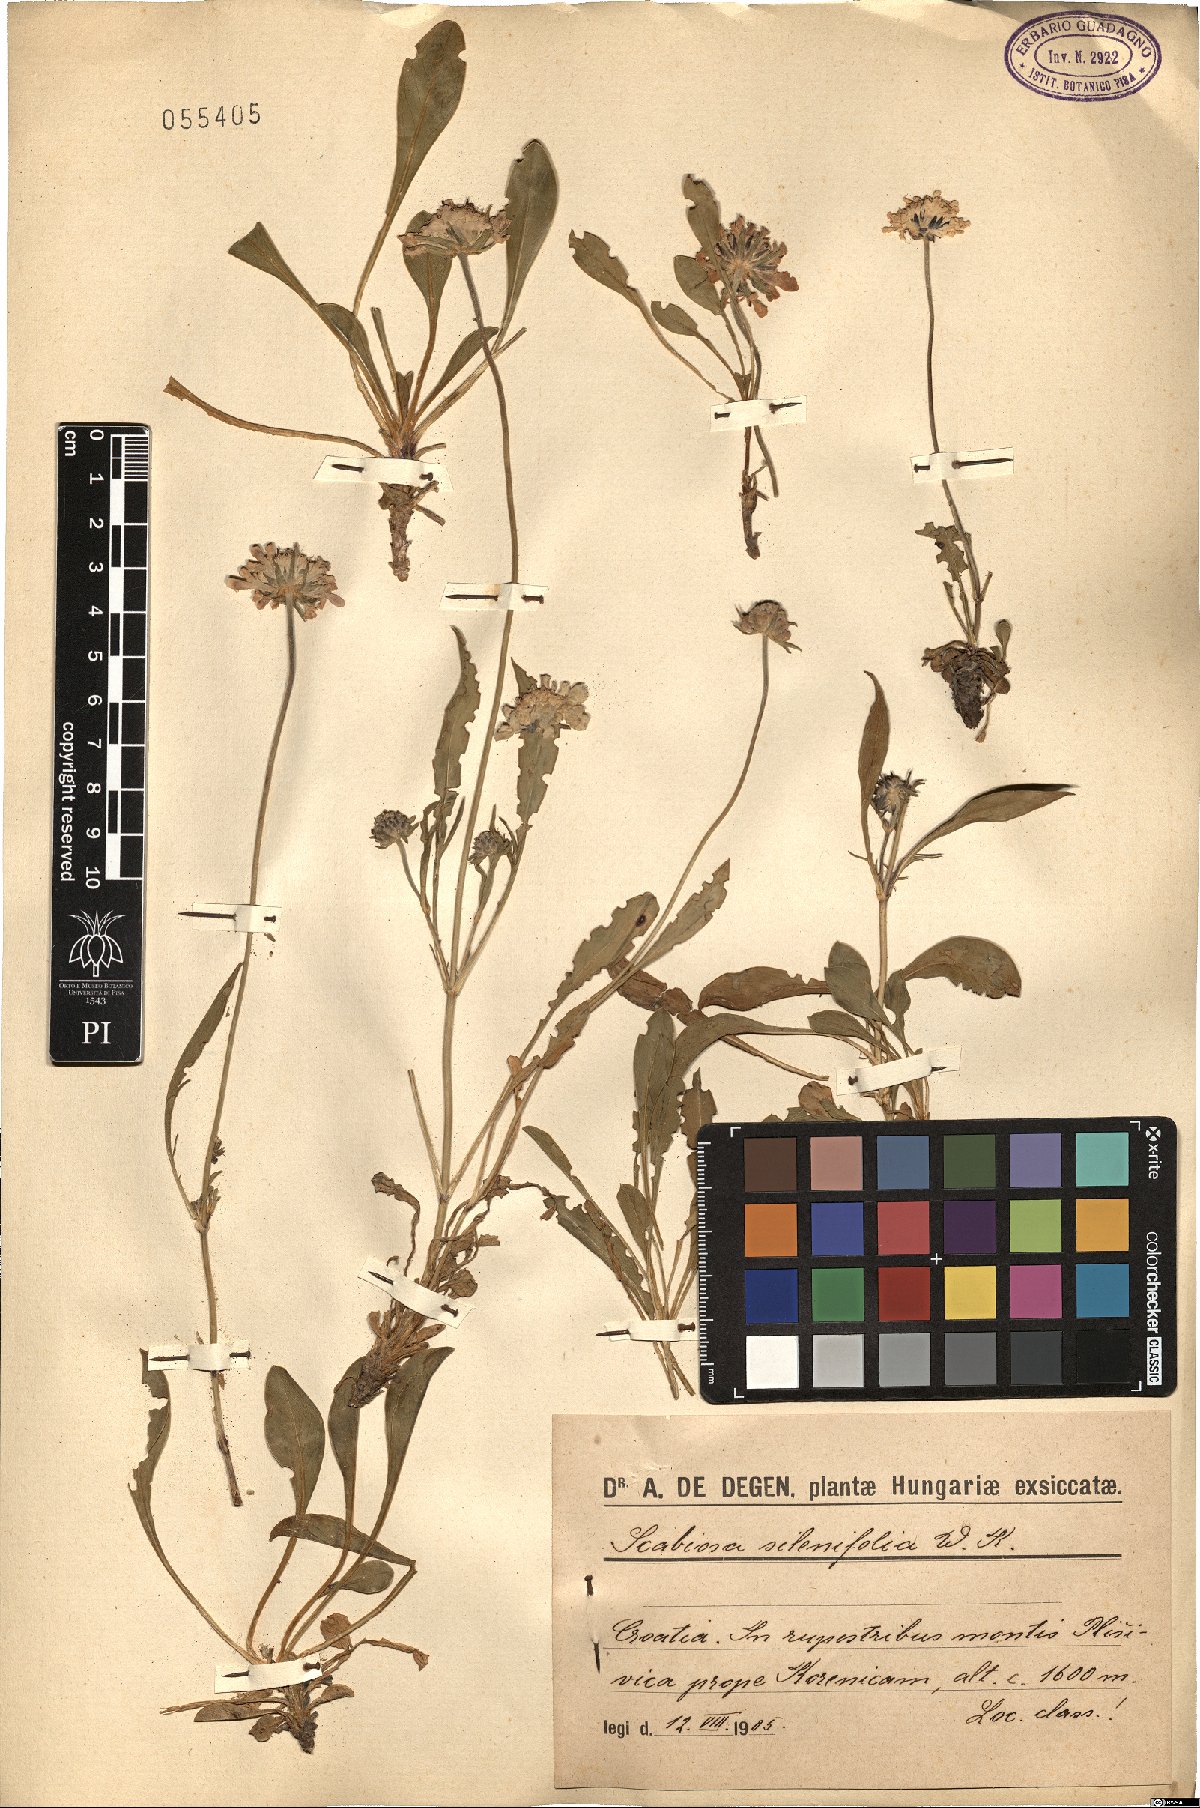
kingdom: Plantae
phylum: Tracheophyta
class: Magnoliopsida
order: Dipsacales
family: Caprifoliaceae
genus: Scabiosa
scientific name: Scabiosa silenifolia
